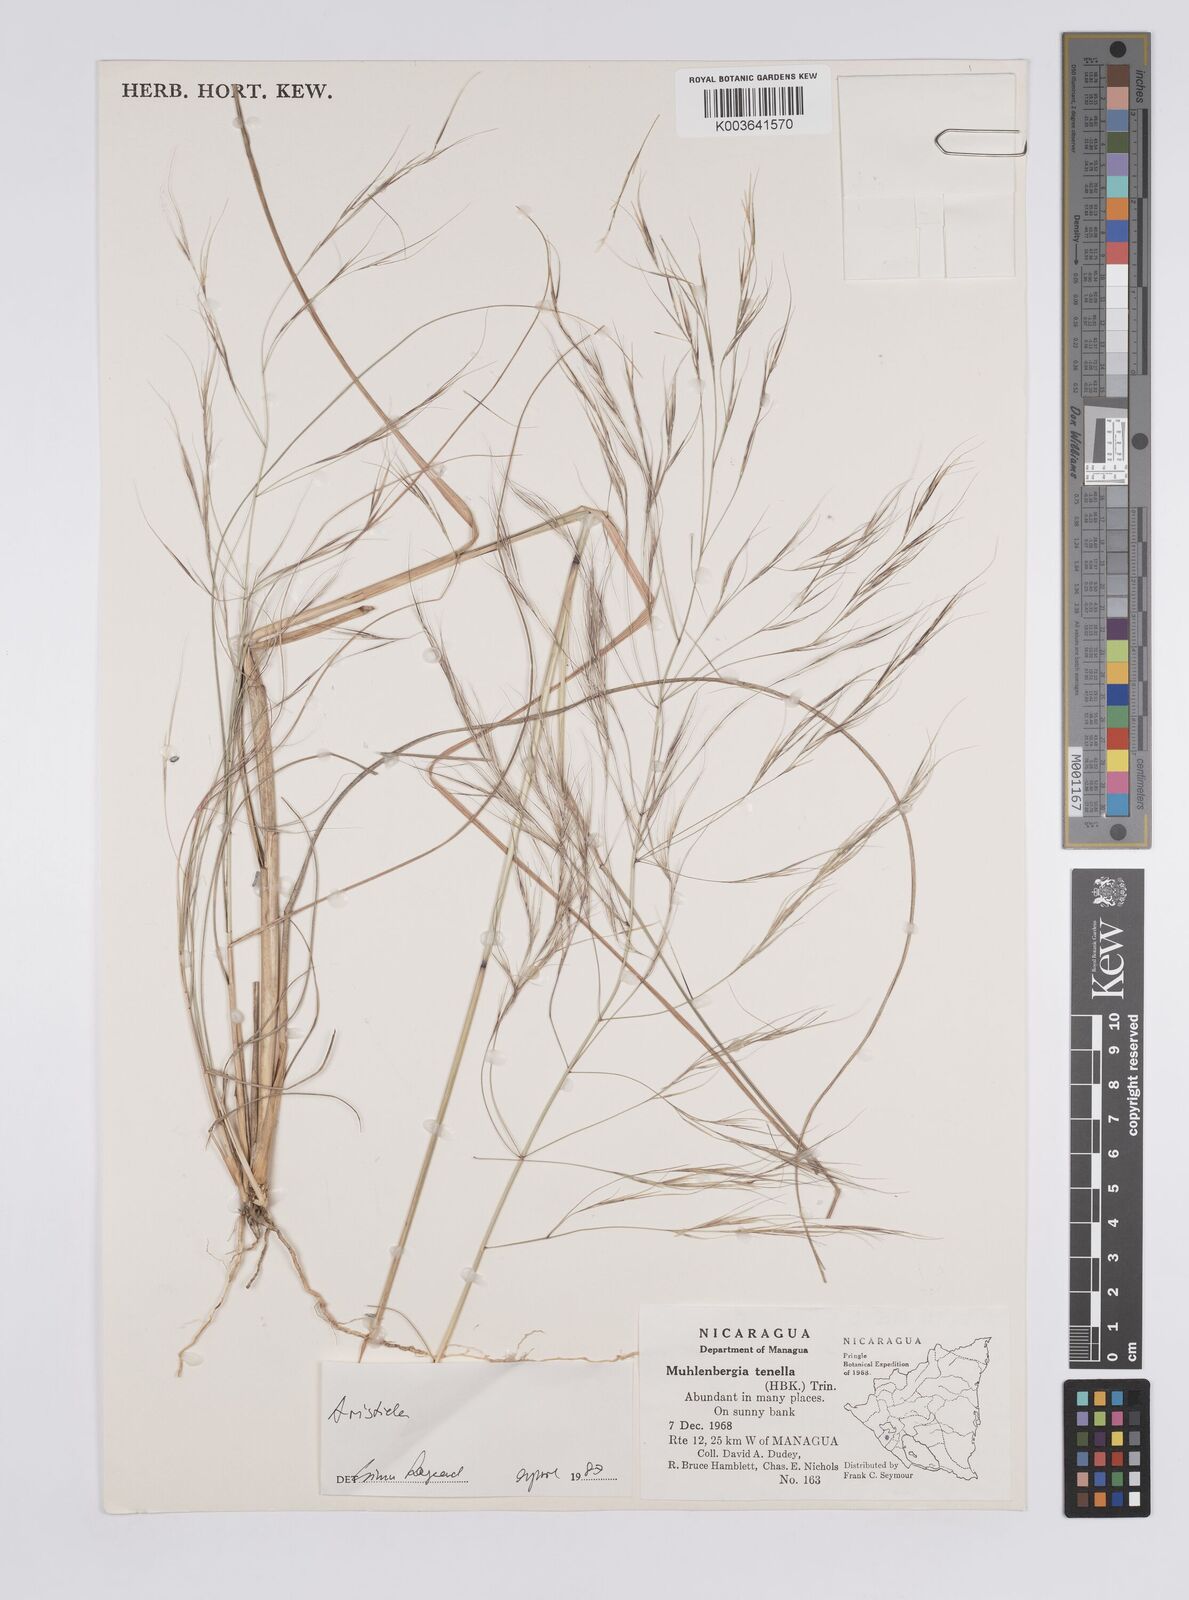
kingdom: Plantae
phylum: Tracheophyta
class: Liliopsida
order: Poales
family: Poaceae
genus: Aristida
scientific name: Aristida
